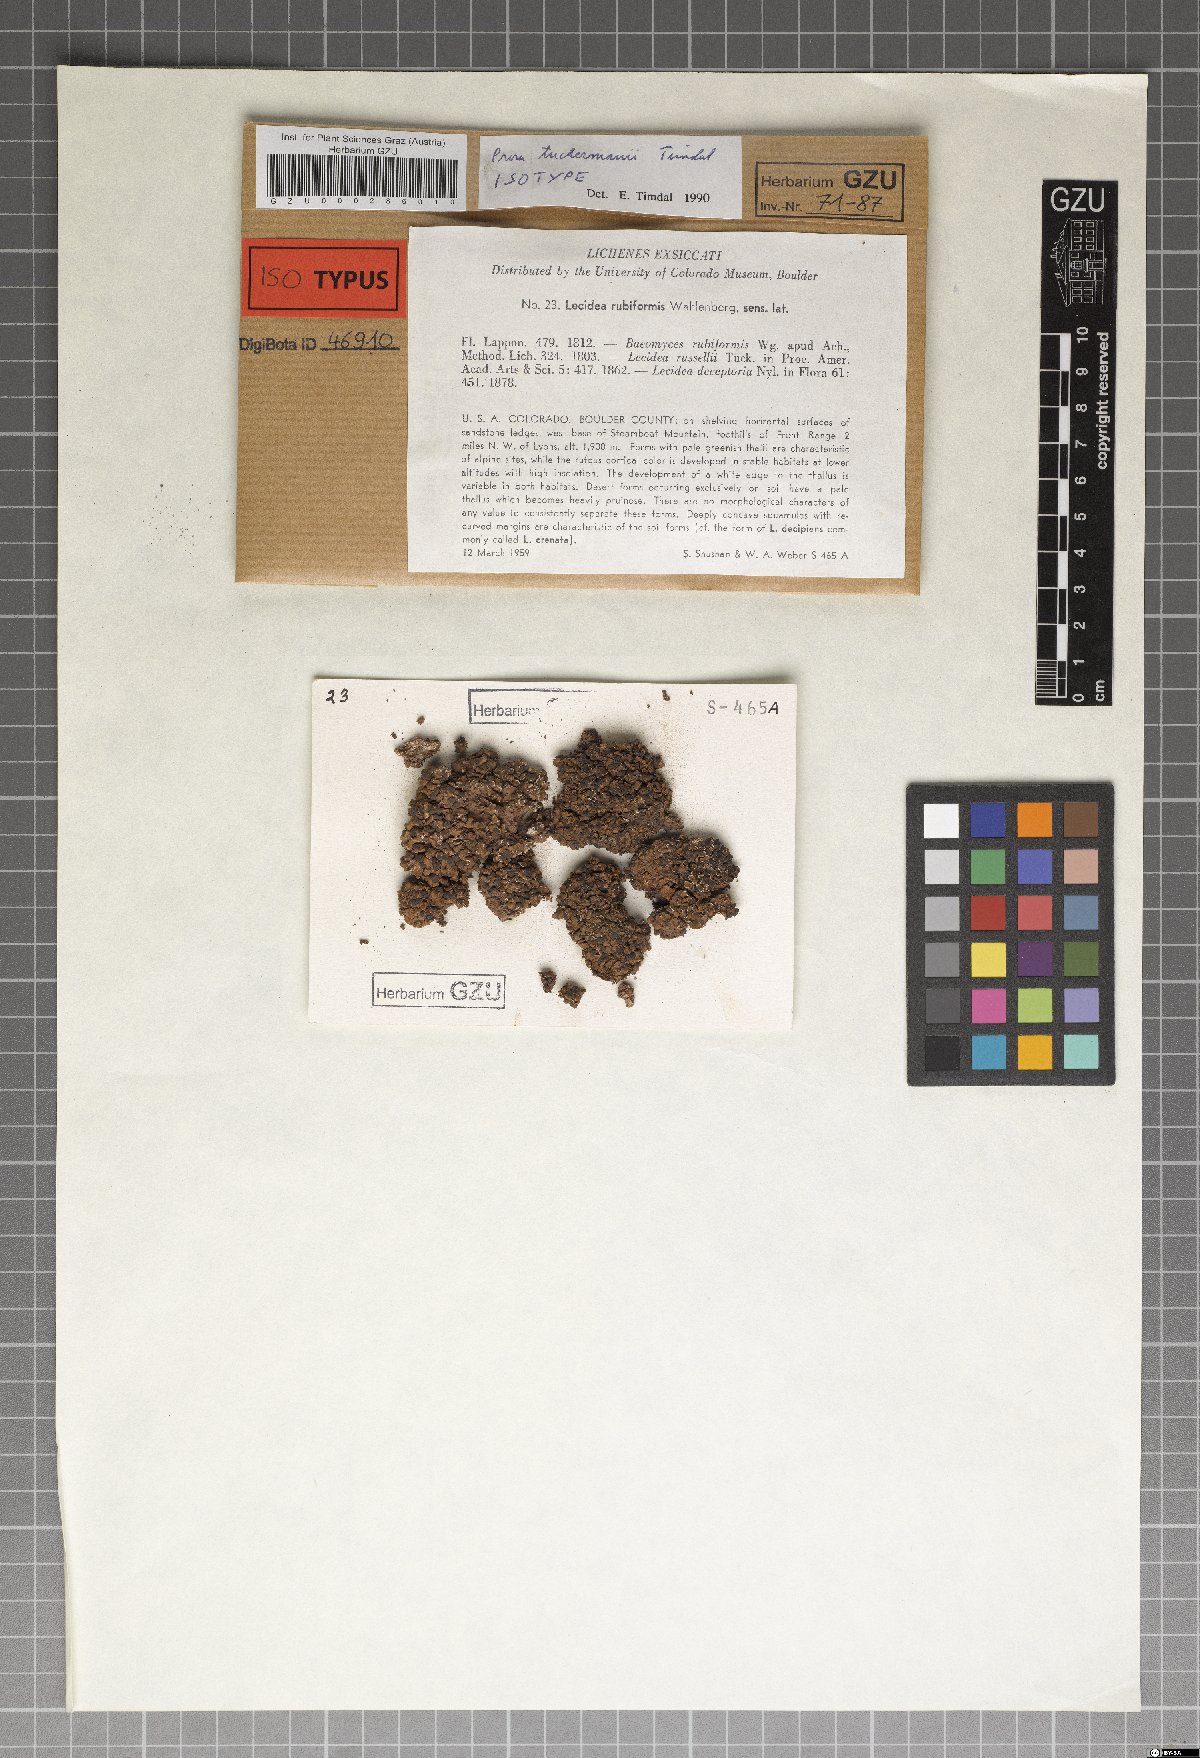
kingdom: Fungi
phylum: Ascomycota
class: Lecanoromycetes
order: Lecanorales
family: Psoraceae
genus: Psora
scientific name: Psora tuckermanii
